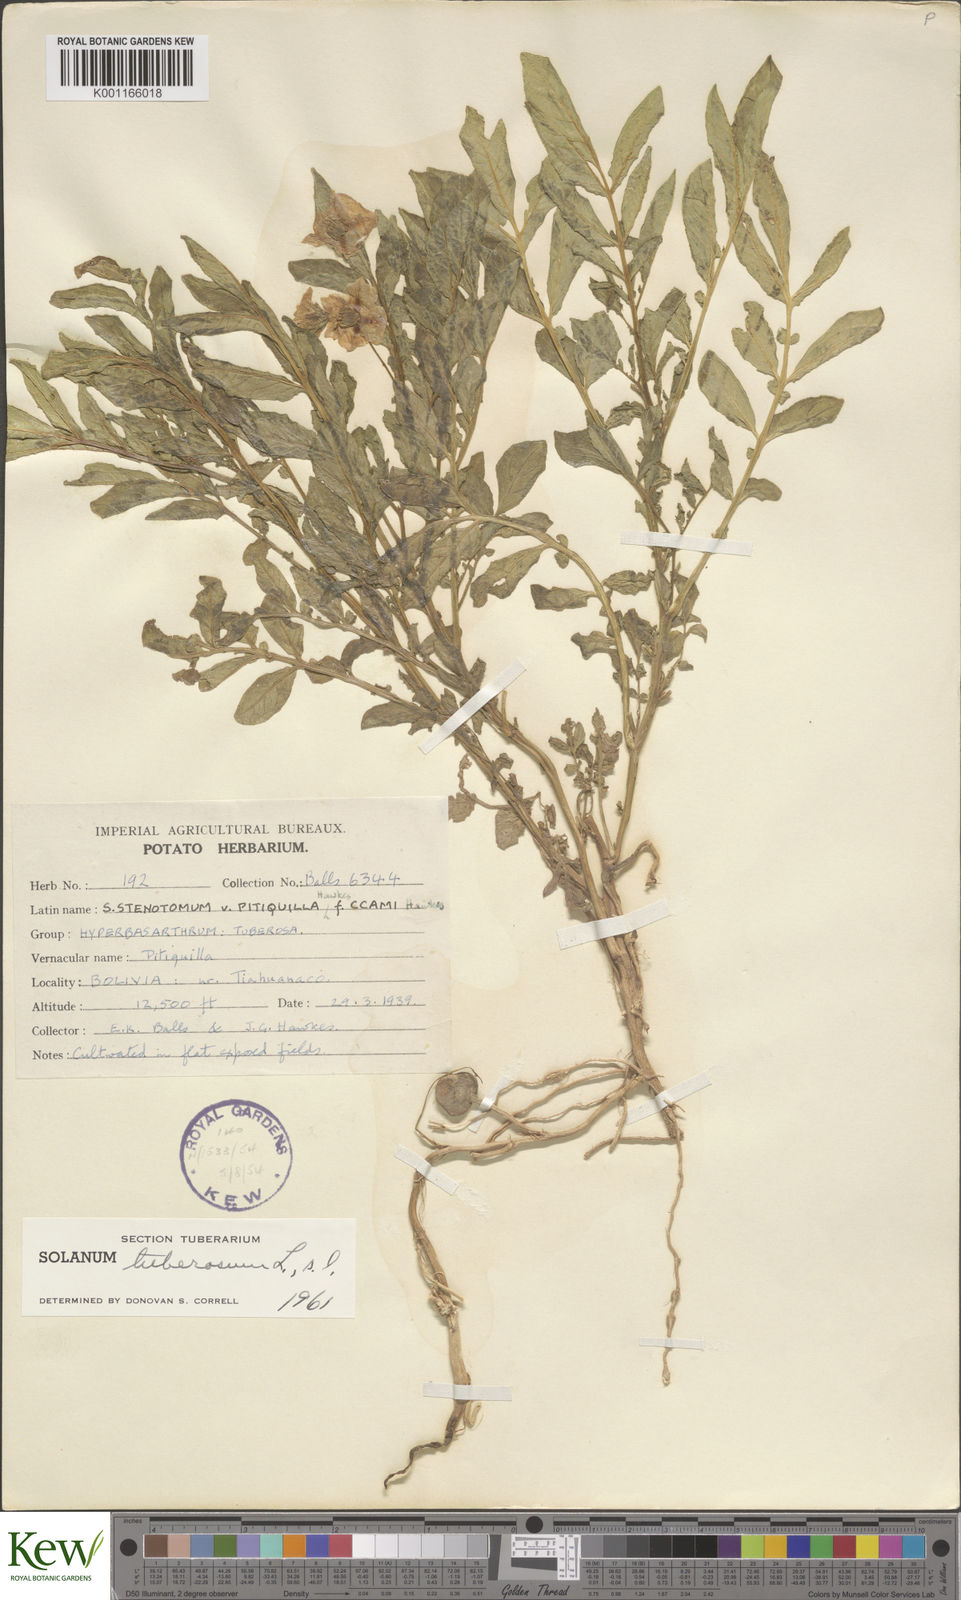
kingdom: Plantae
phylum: Tracheophyta
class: Magnoliopsida
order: Solanales
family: Solanaceae
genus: Solanum
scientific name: Solanum tuberosum
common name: Potato
